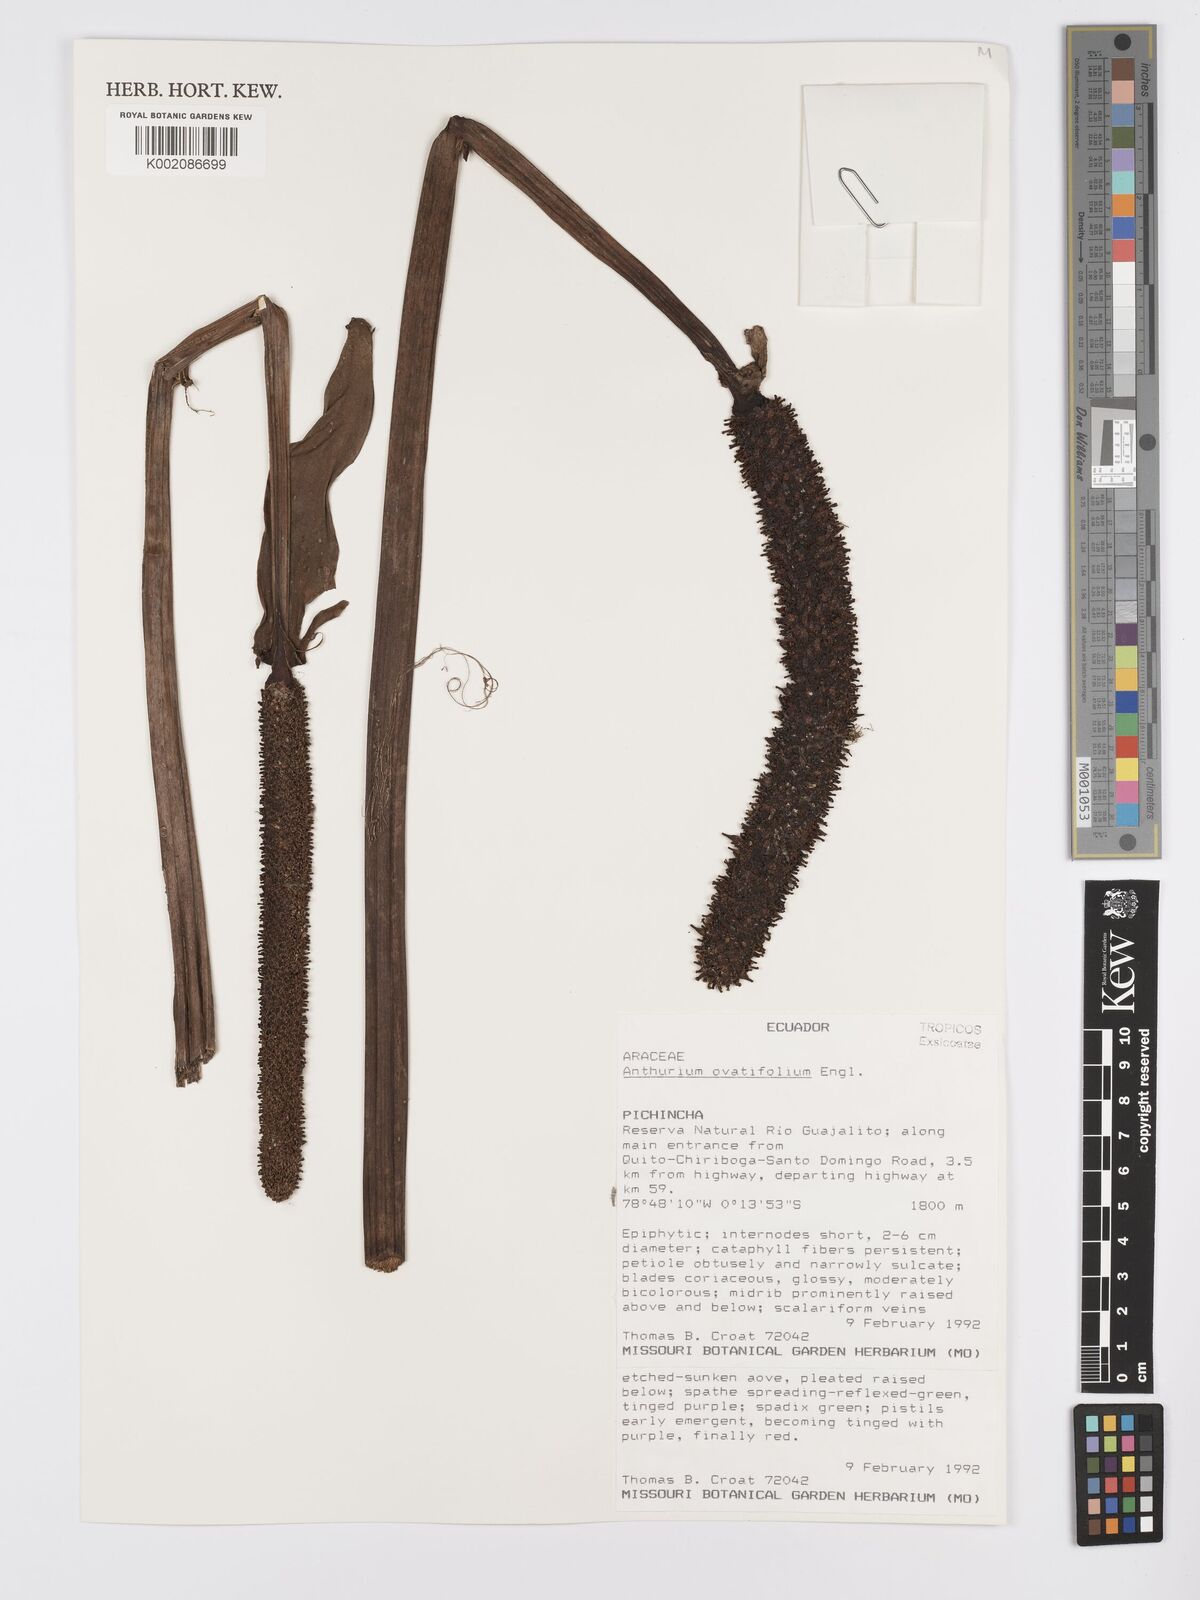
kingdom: Plantae
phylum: Tracheophyta
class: Liliopsida
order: Alismatales
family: Araceae
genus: Anthurium
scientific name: Anthurium ovatifolium
